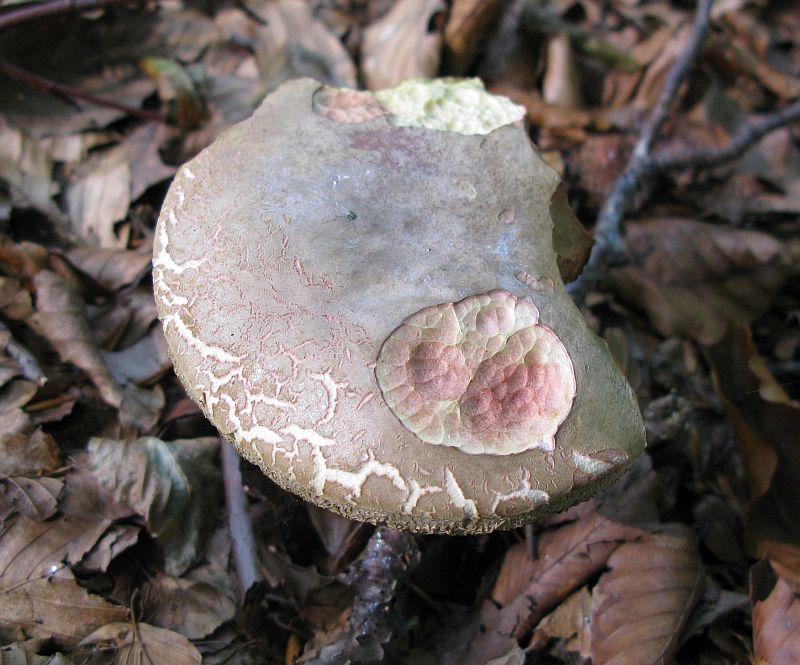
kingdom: Fungi
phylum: Basidiomycota
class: Agaricomycetes
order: Boletales
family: Boletaceae
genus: Xerocomellus
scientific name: Xerocomellus chrysenteron
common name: rødsprukken rørhat
